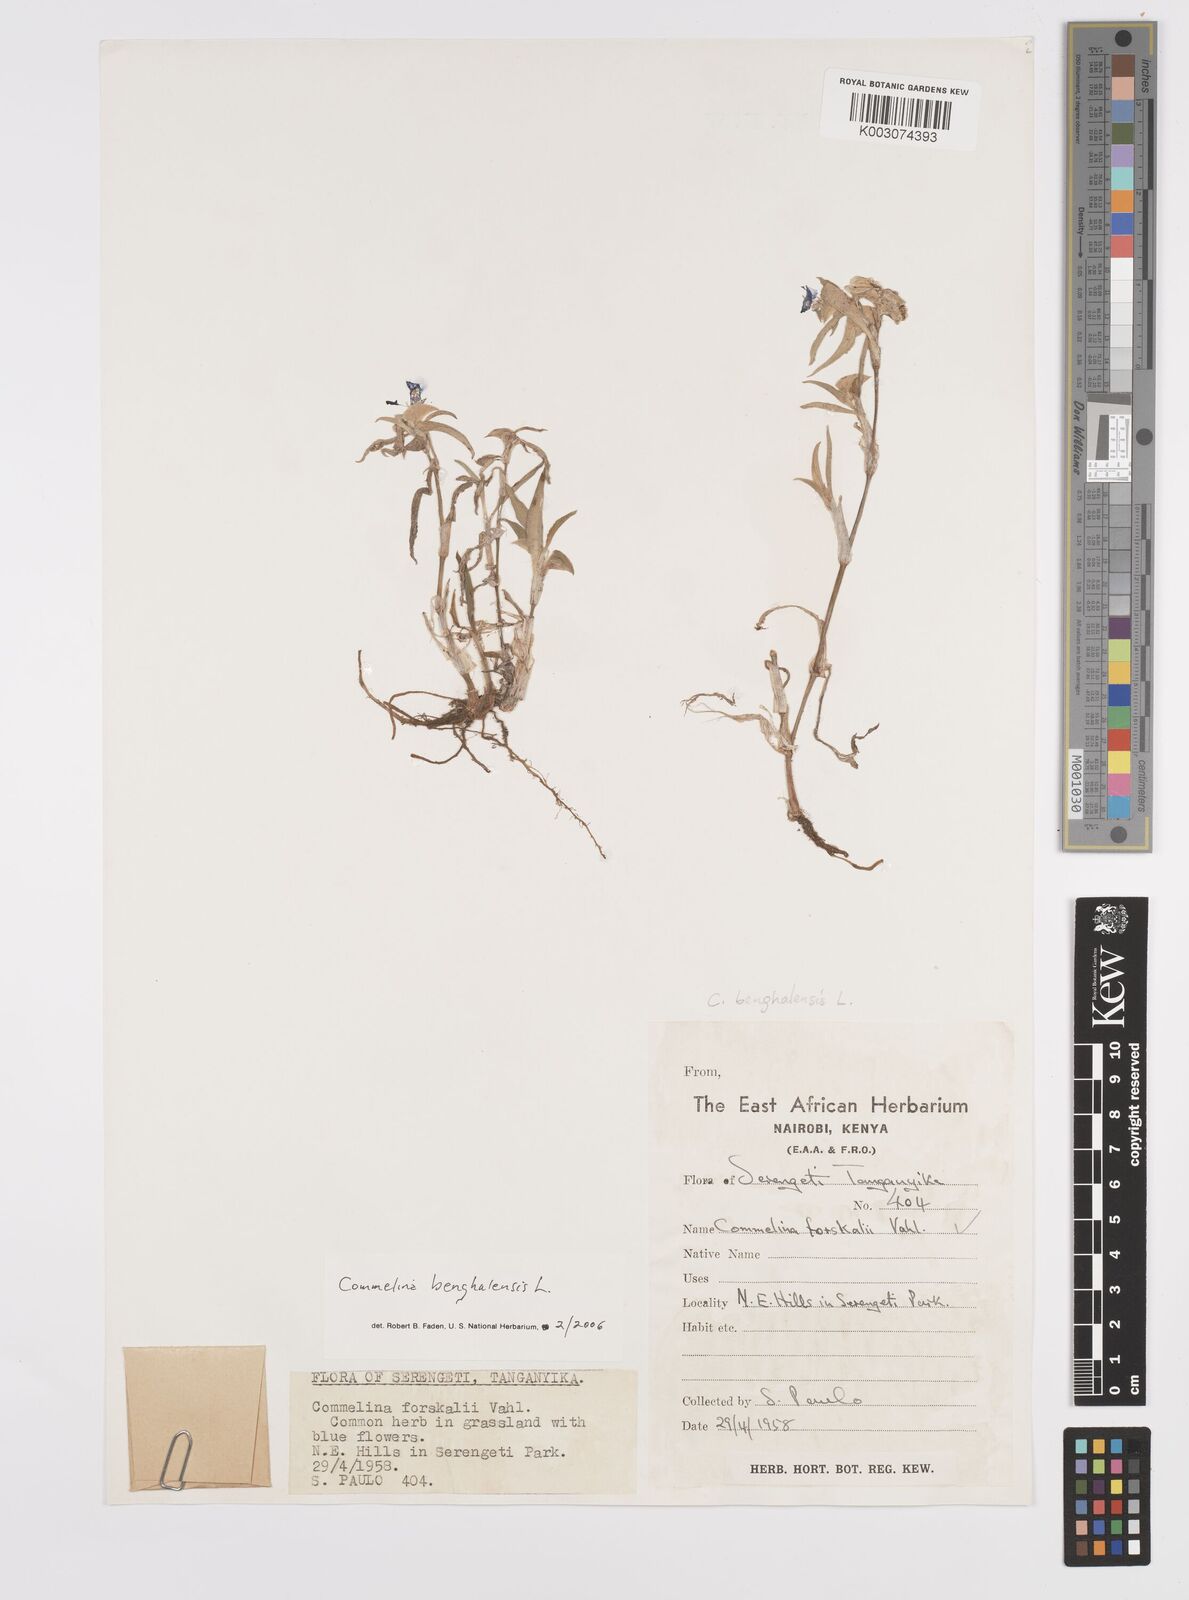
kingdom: Plantae
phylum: Tracheophyta
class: Liliopsida
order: Commelinales
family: Commelinaceae
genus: Commelina
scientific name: Commelina benghalensis
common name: Jio
